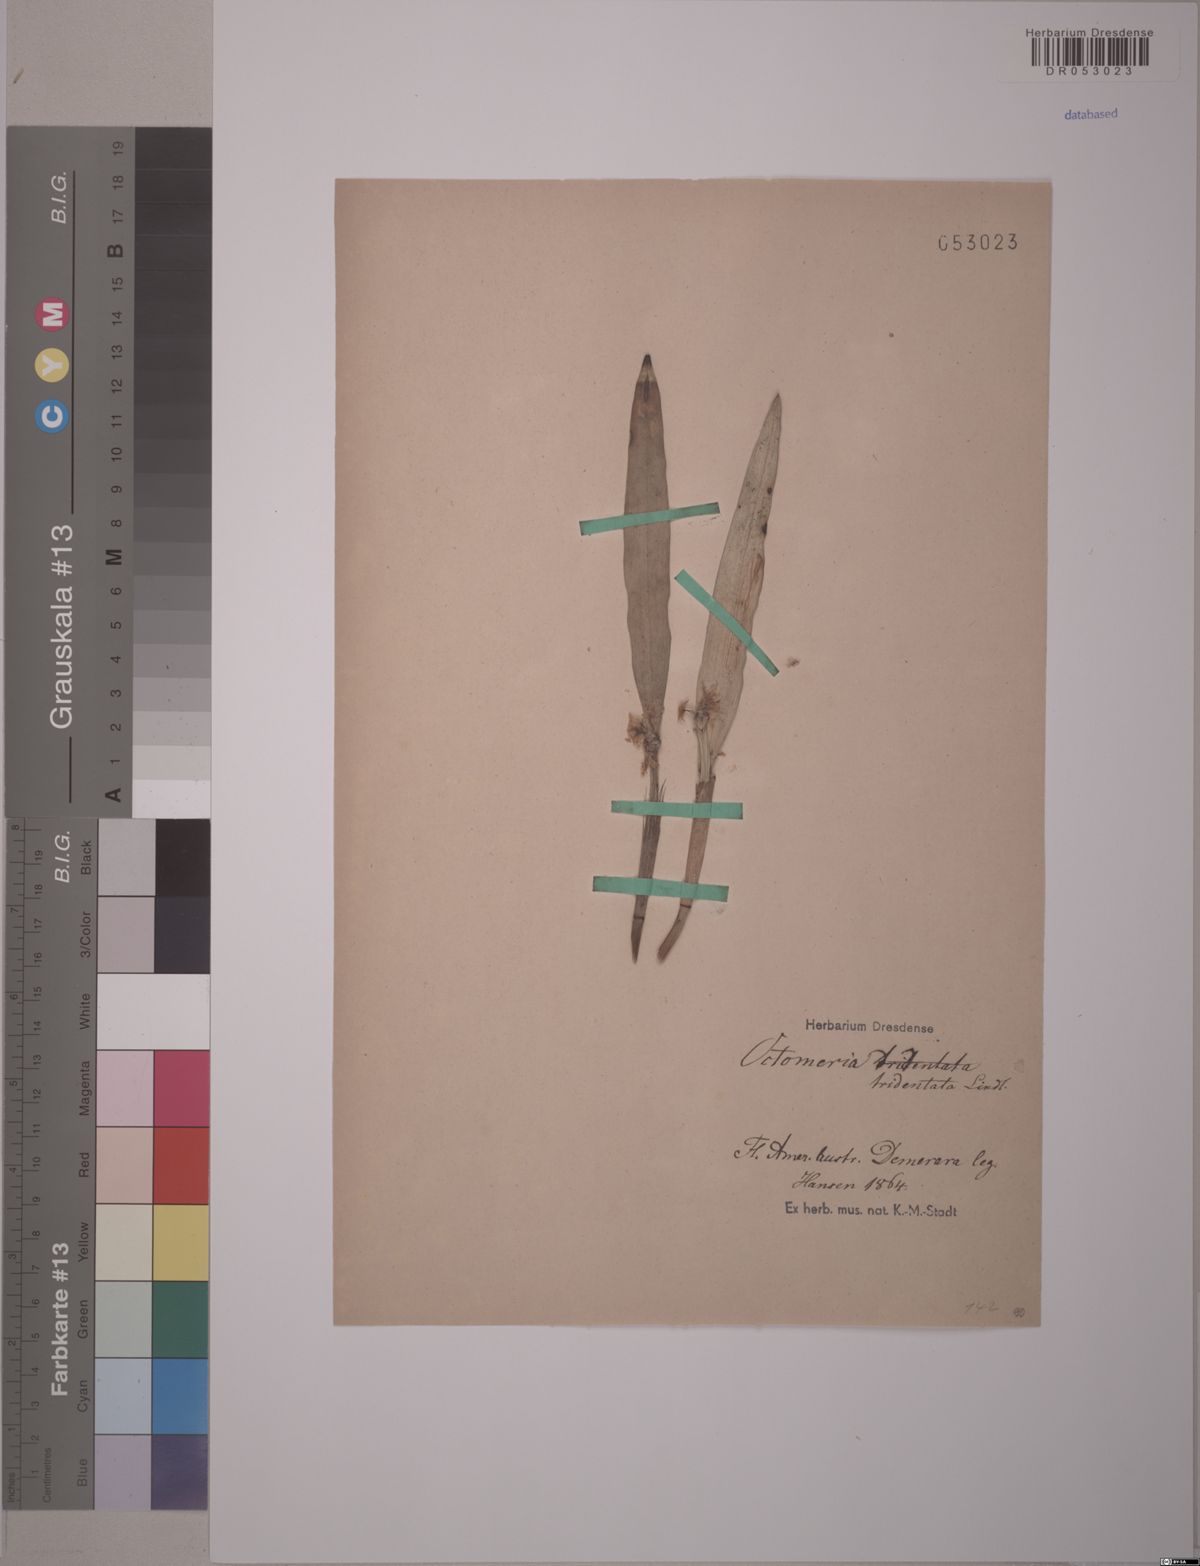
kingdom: Plantae
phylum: Tracheophyta
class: Liliopsida
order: Asparagales
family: Orchidaceae
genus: Octomeria
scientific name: Octomeria tridentata
